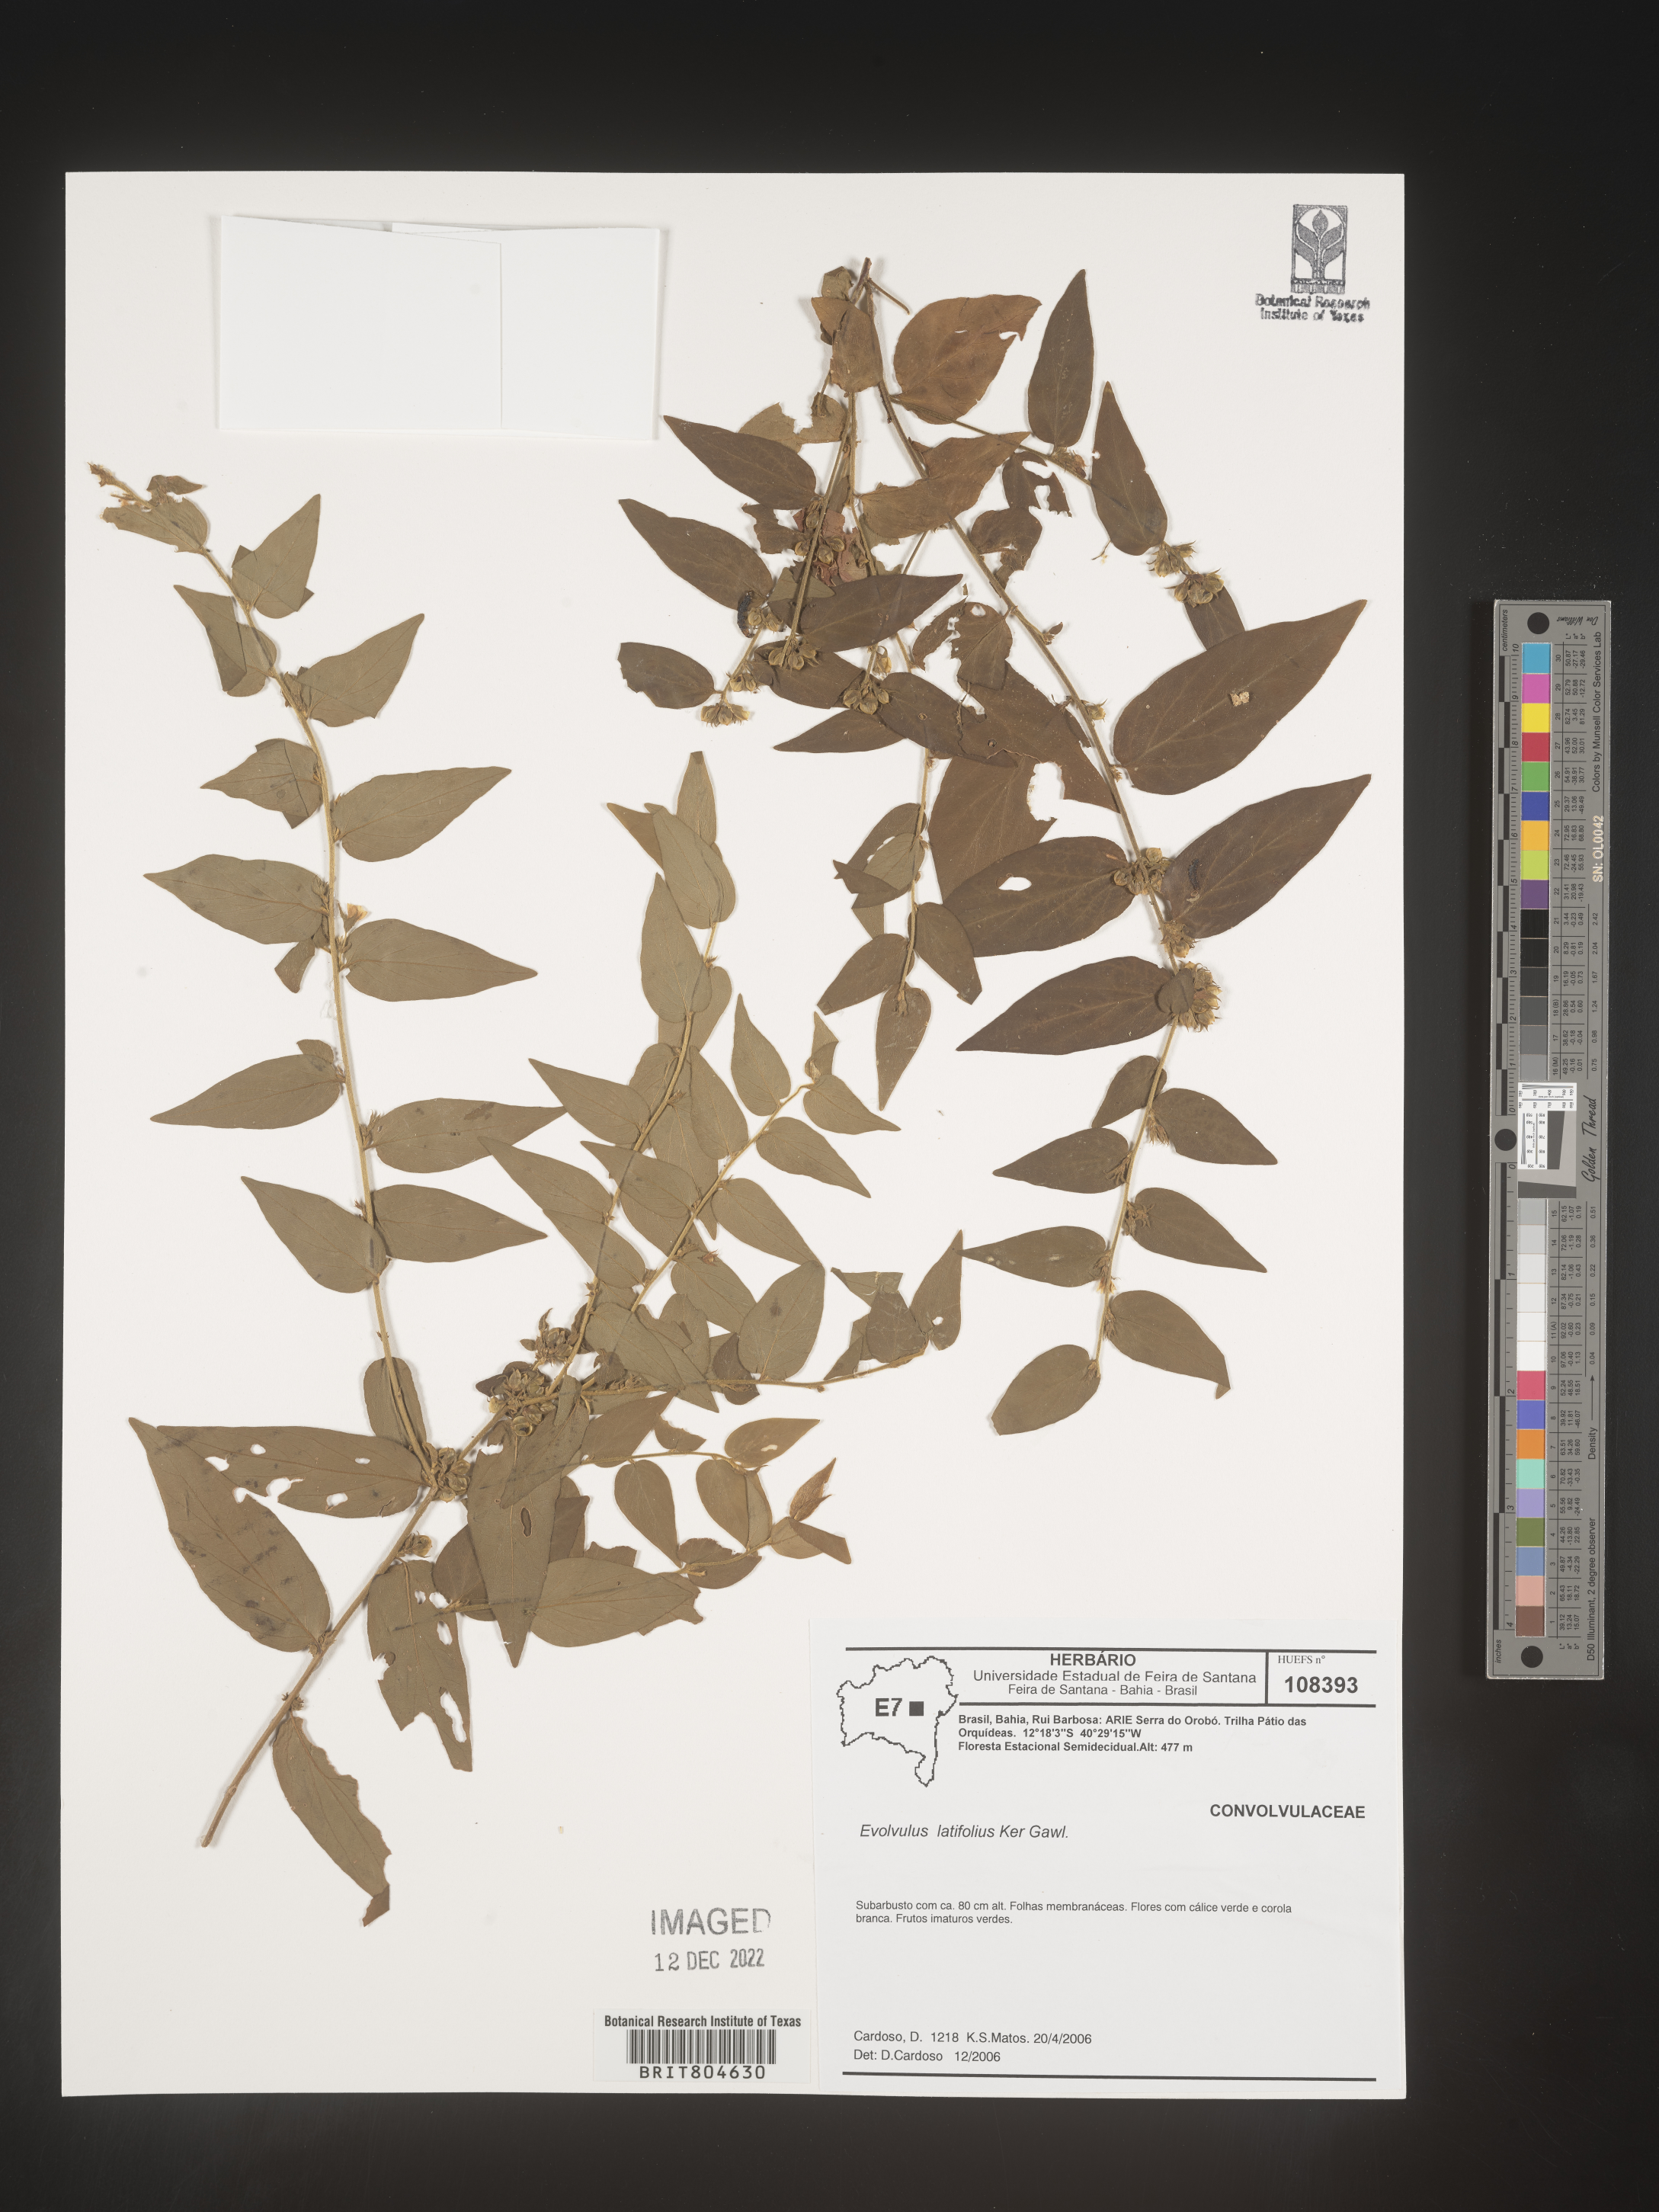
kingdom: Plantae
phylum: Tracheophyta
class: Magnoliopsida
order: Solanales
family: Convolvulaceae
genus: Evolvulus
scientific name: Evolvulus
